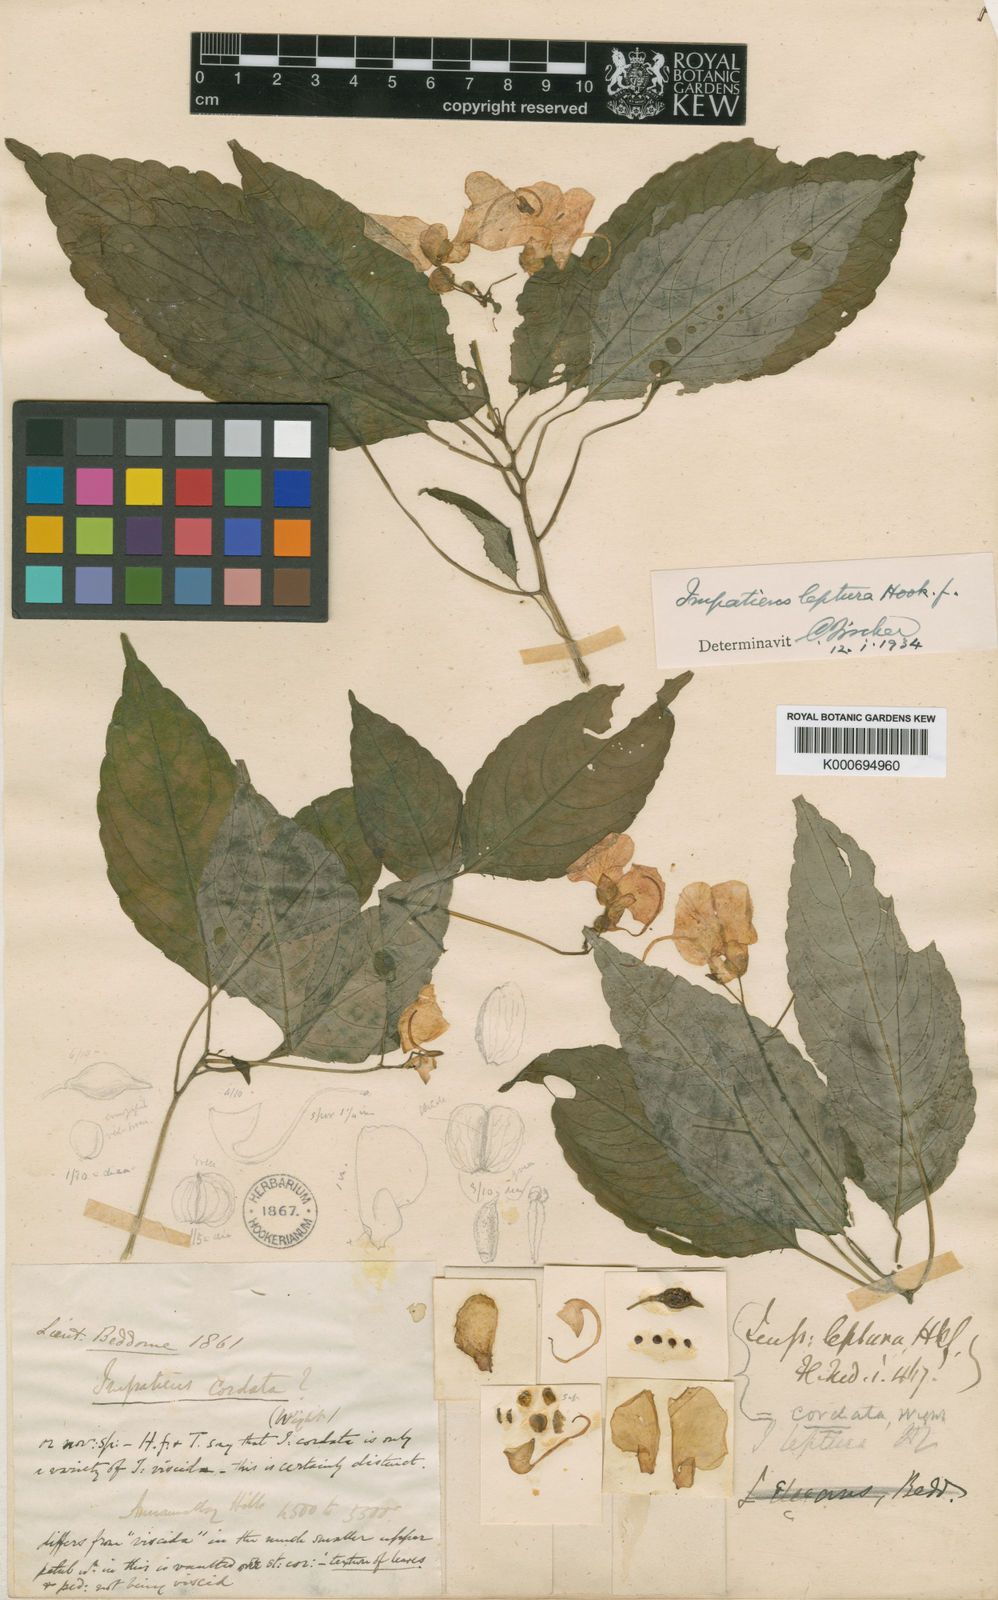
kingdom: Plantae
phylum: Tracheophyta
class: Magnoliopsida
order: Ericales
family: Balsaminaceae
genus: Impatiens
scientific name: Impatiens leptura
